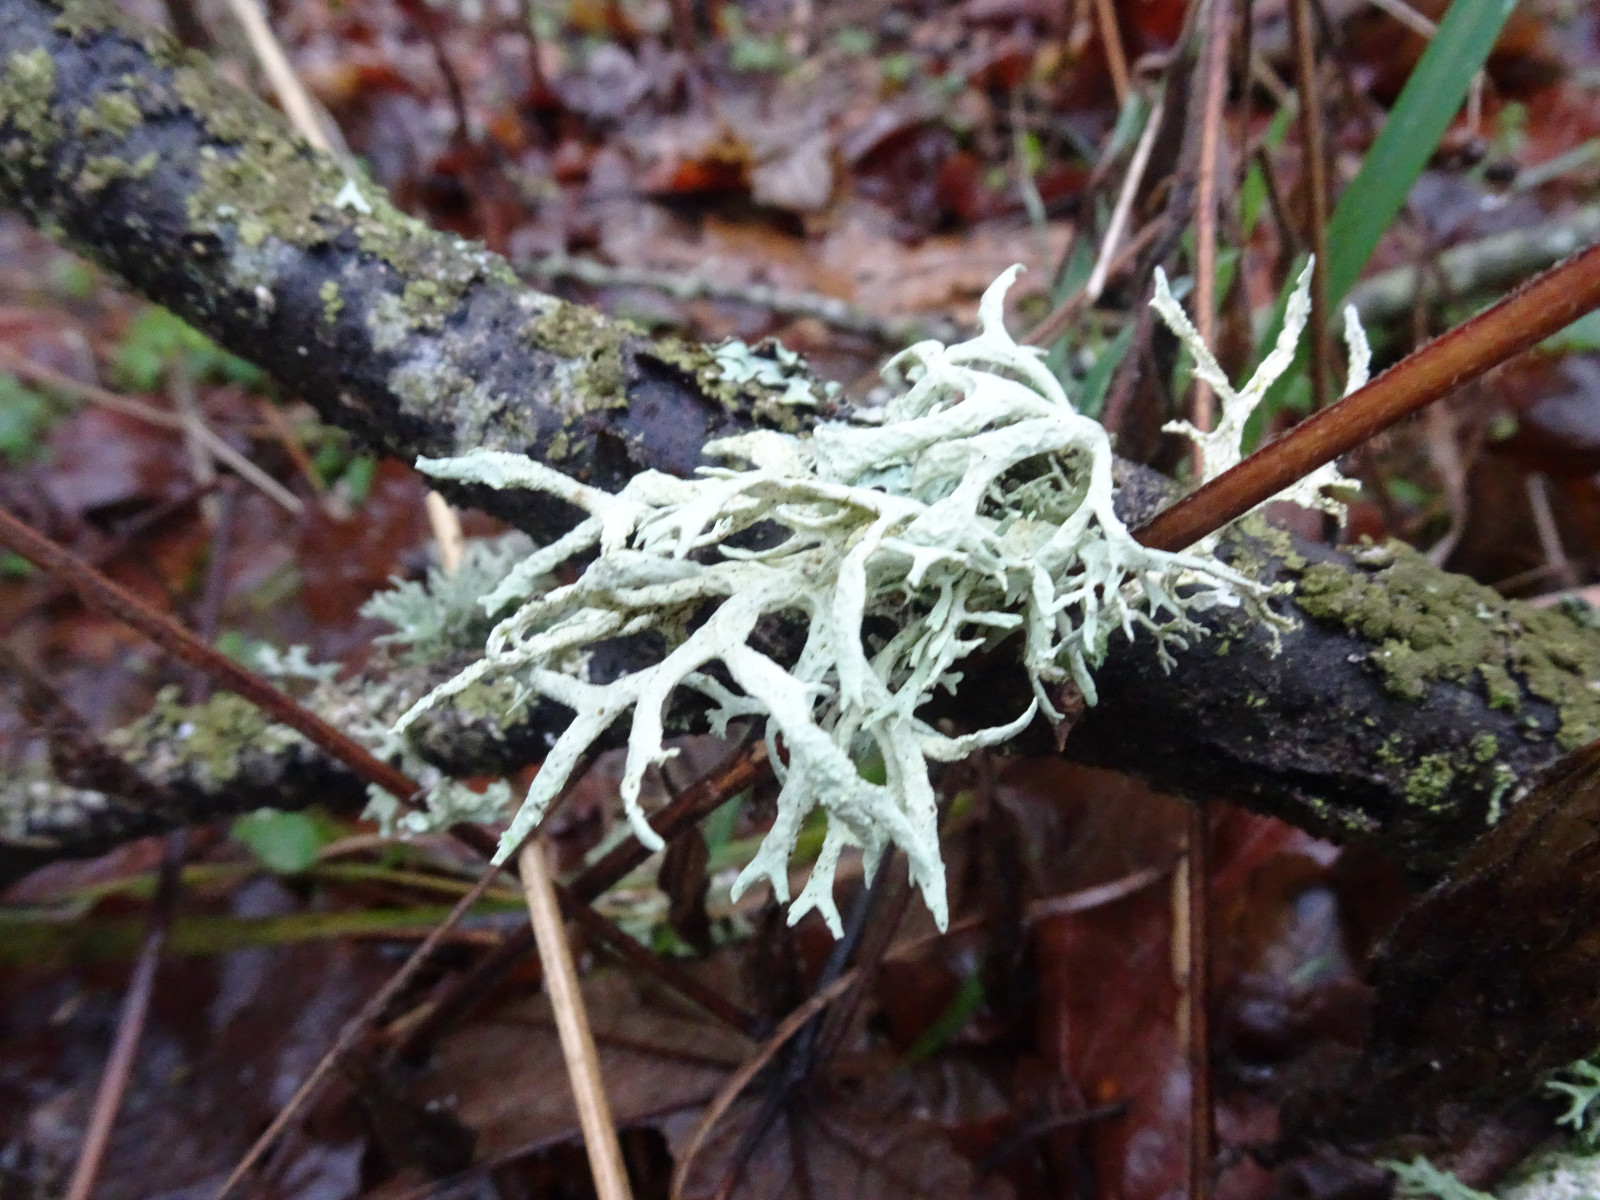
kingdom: Fungi
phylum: Ascomycota
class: Lecanoromycetes
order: Lecanorales
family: Parmeliaceae
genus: Evernia
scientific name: Evernia prunastri
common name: almindelig slåenlav
